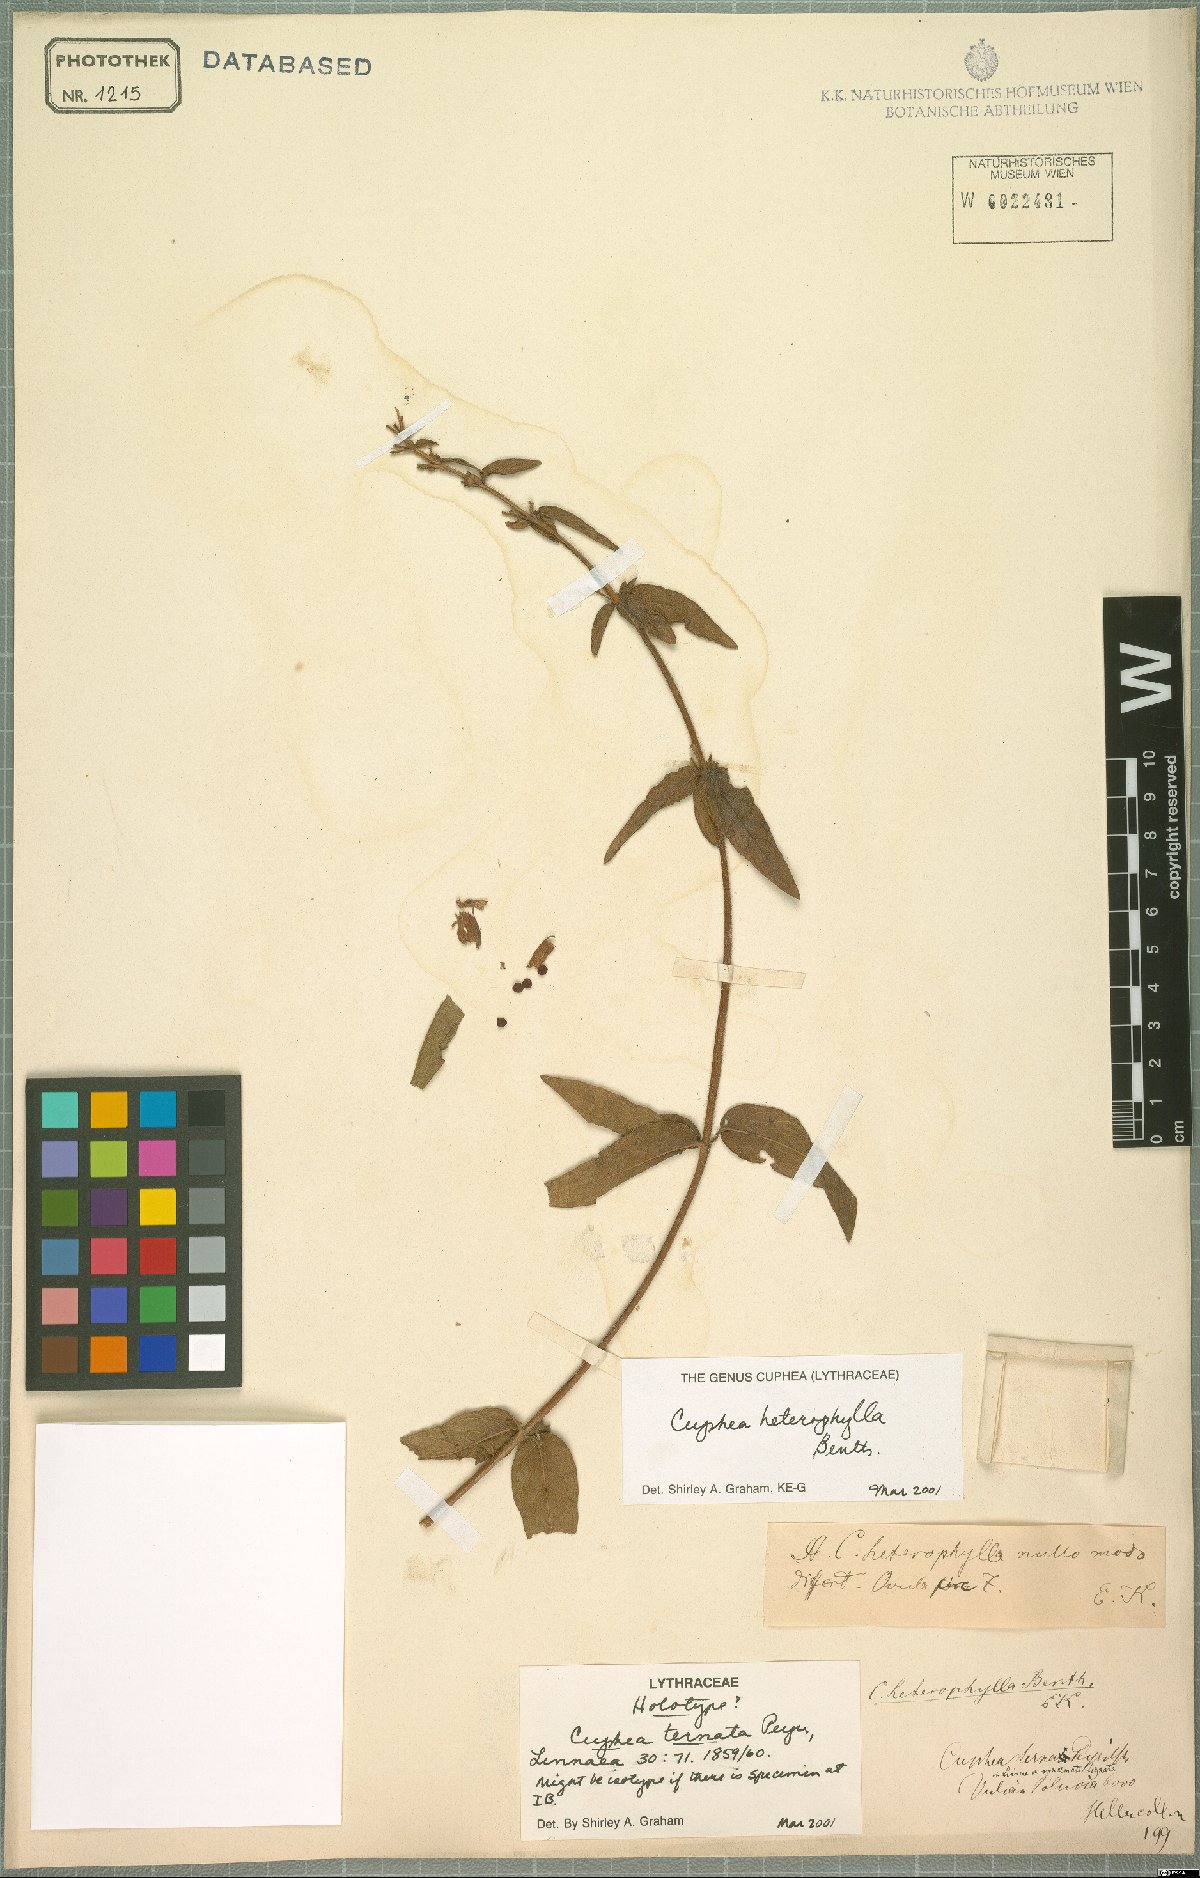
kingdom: Plantae
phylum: Tracheophyta
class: Magnoliopsida
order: Myrtales
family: Lythraceae
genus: Cuphea
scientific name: Cuphea heterophylla
